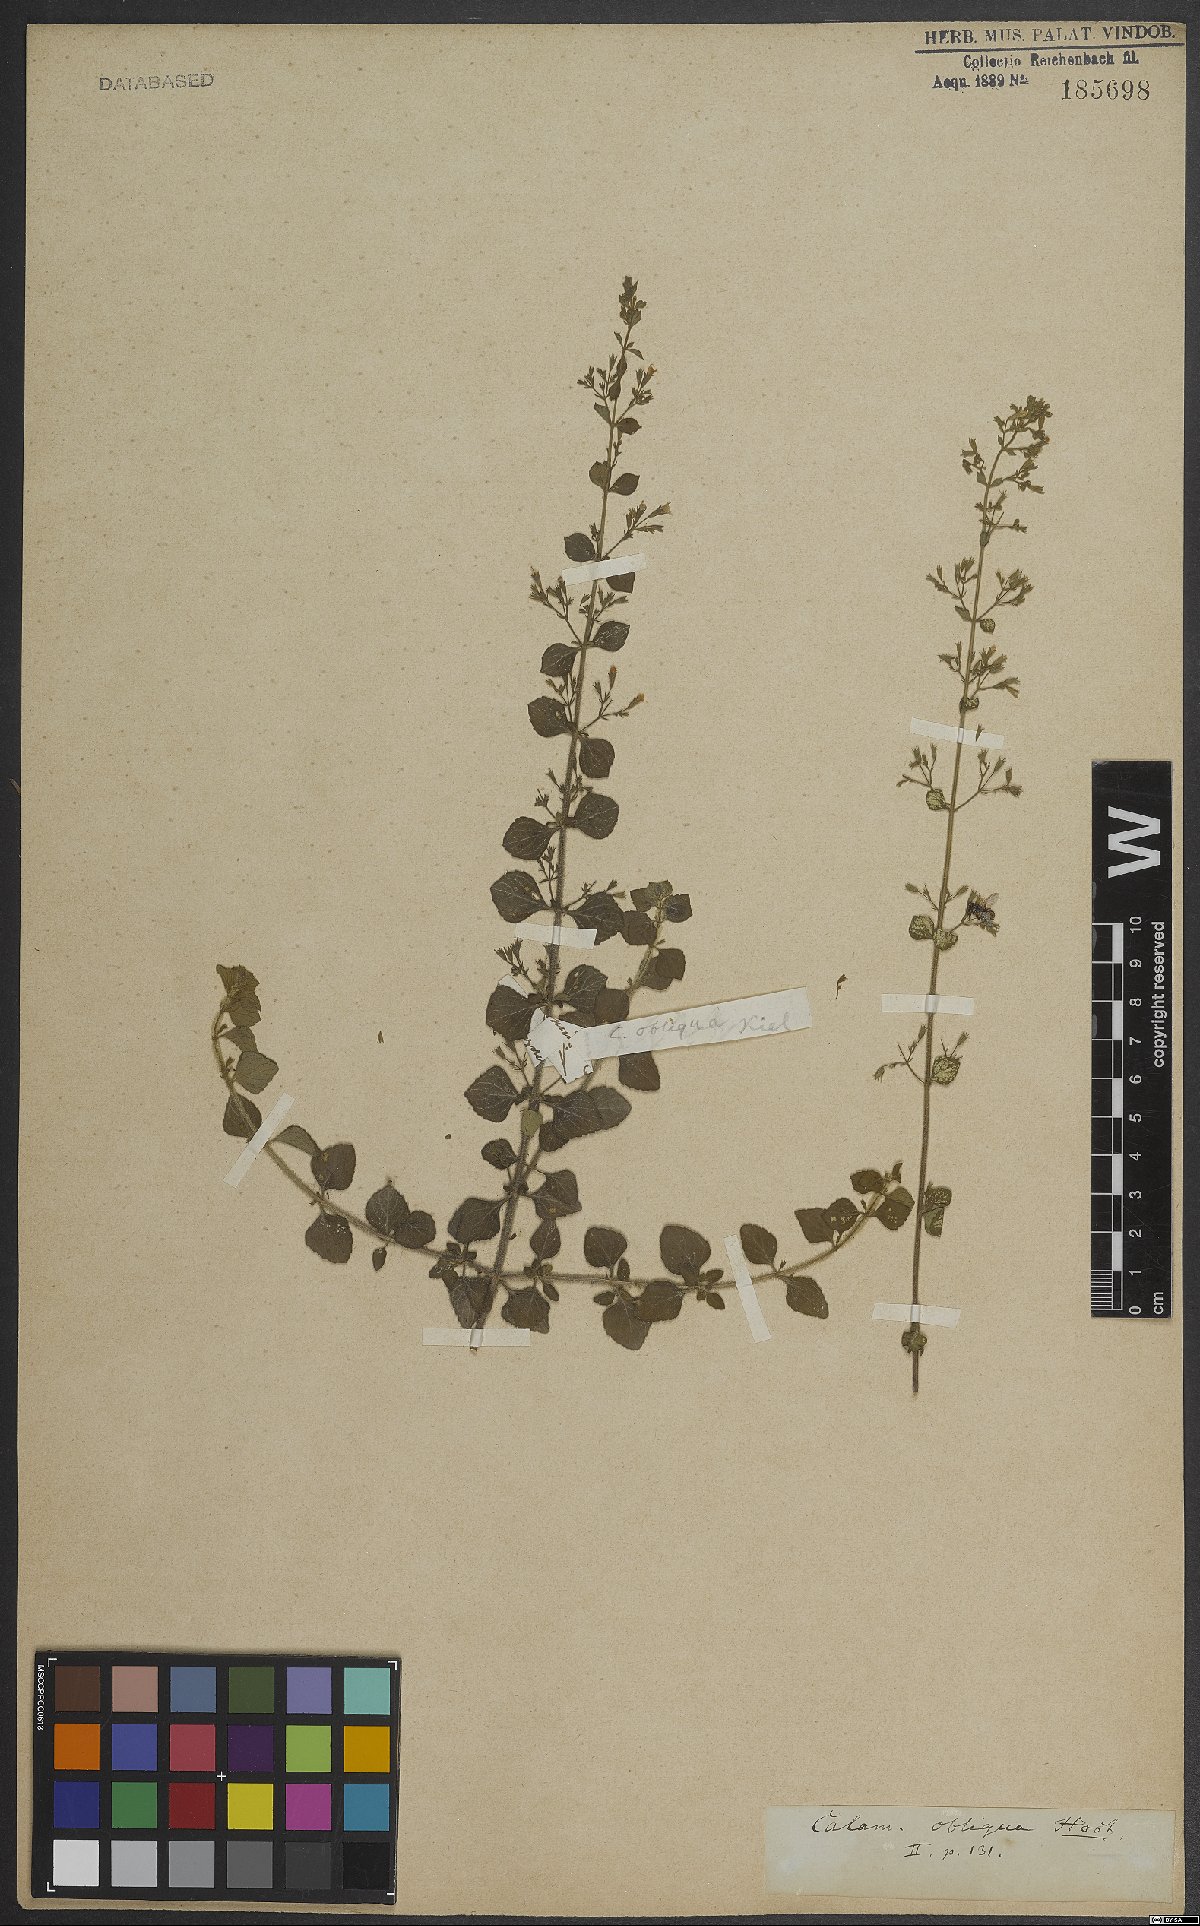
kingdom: Plantae
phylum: Tracheophyta
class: Magnoliopsida
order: Lamiales
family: Lamiaceae
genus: Clinopodium
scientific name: Clinopodium nepeta
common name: Lesser calamint
